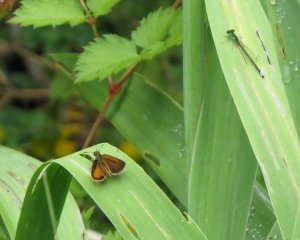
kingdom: Animalia
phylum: Arthropoda
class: Insecta
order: Lepidoptera
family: Hesperiidae
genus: Ancyloxypha
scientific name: Ancyloxypha numitor
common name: Least Skipper
